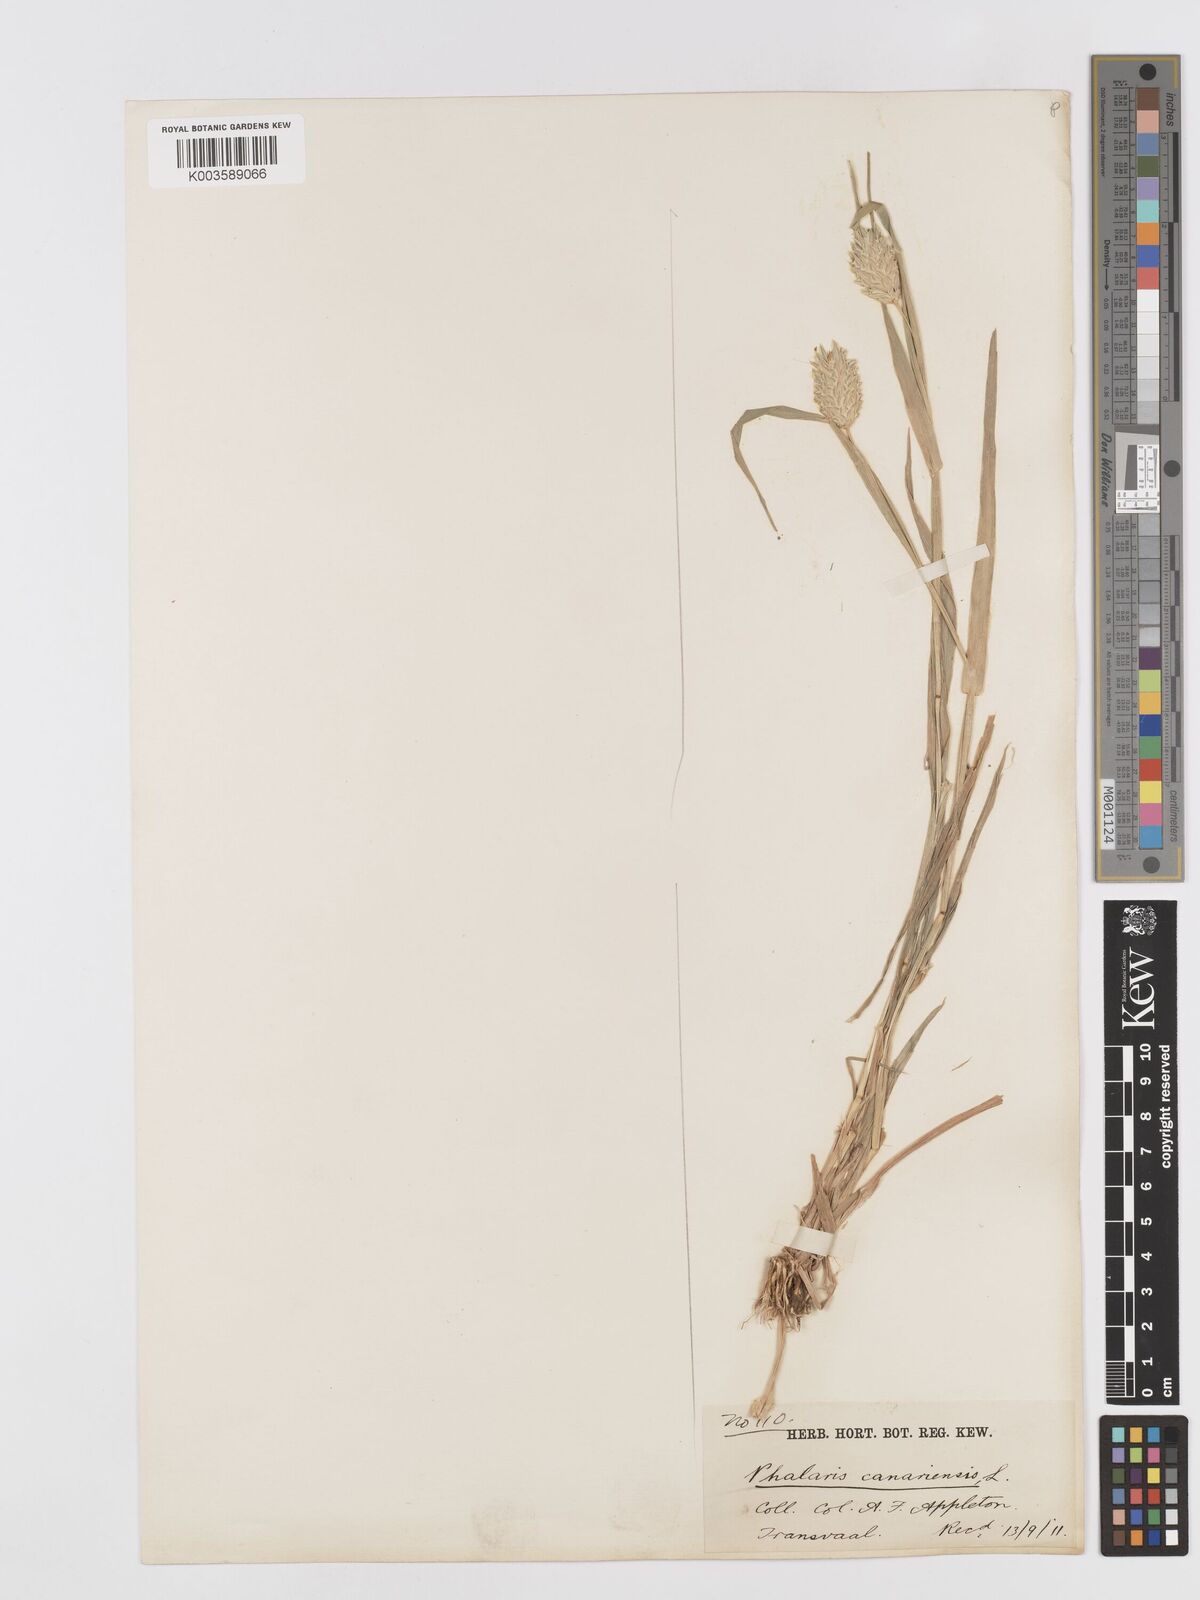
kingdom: Plantae
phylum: Tracheophyta
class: Liliopsida
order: Poales
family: Poaceae
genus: Phalaris
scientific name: Phalaris canariensis
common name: Annual canarygrass
